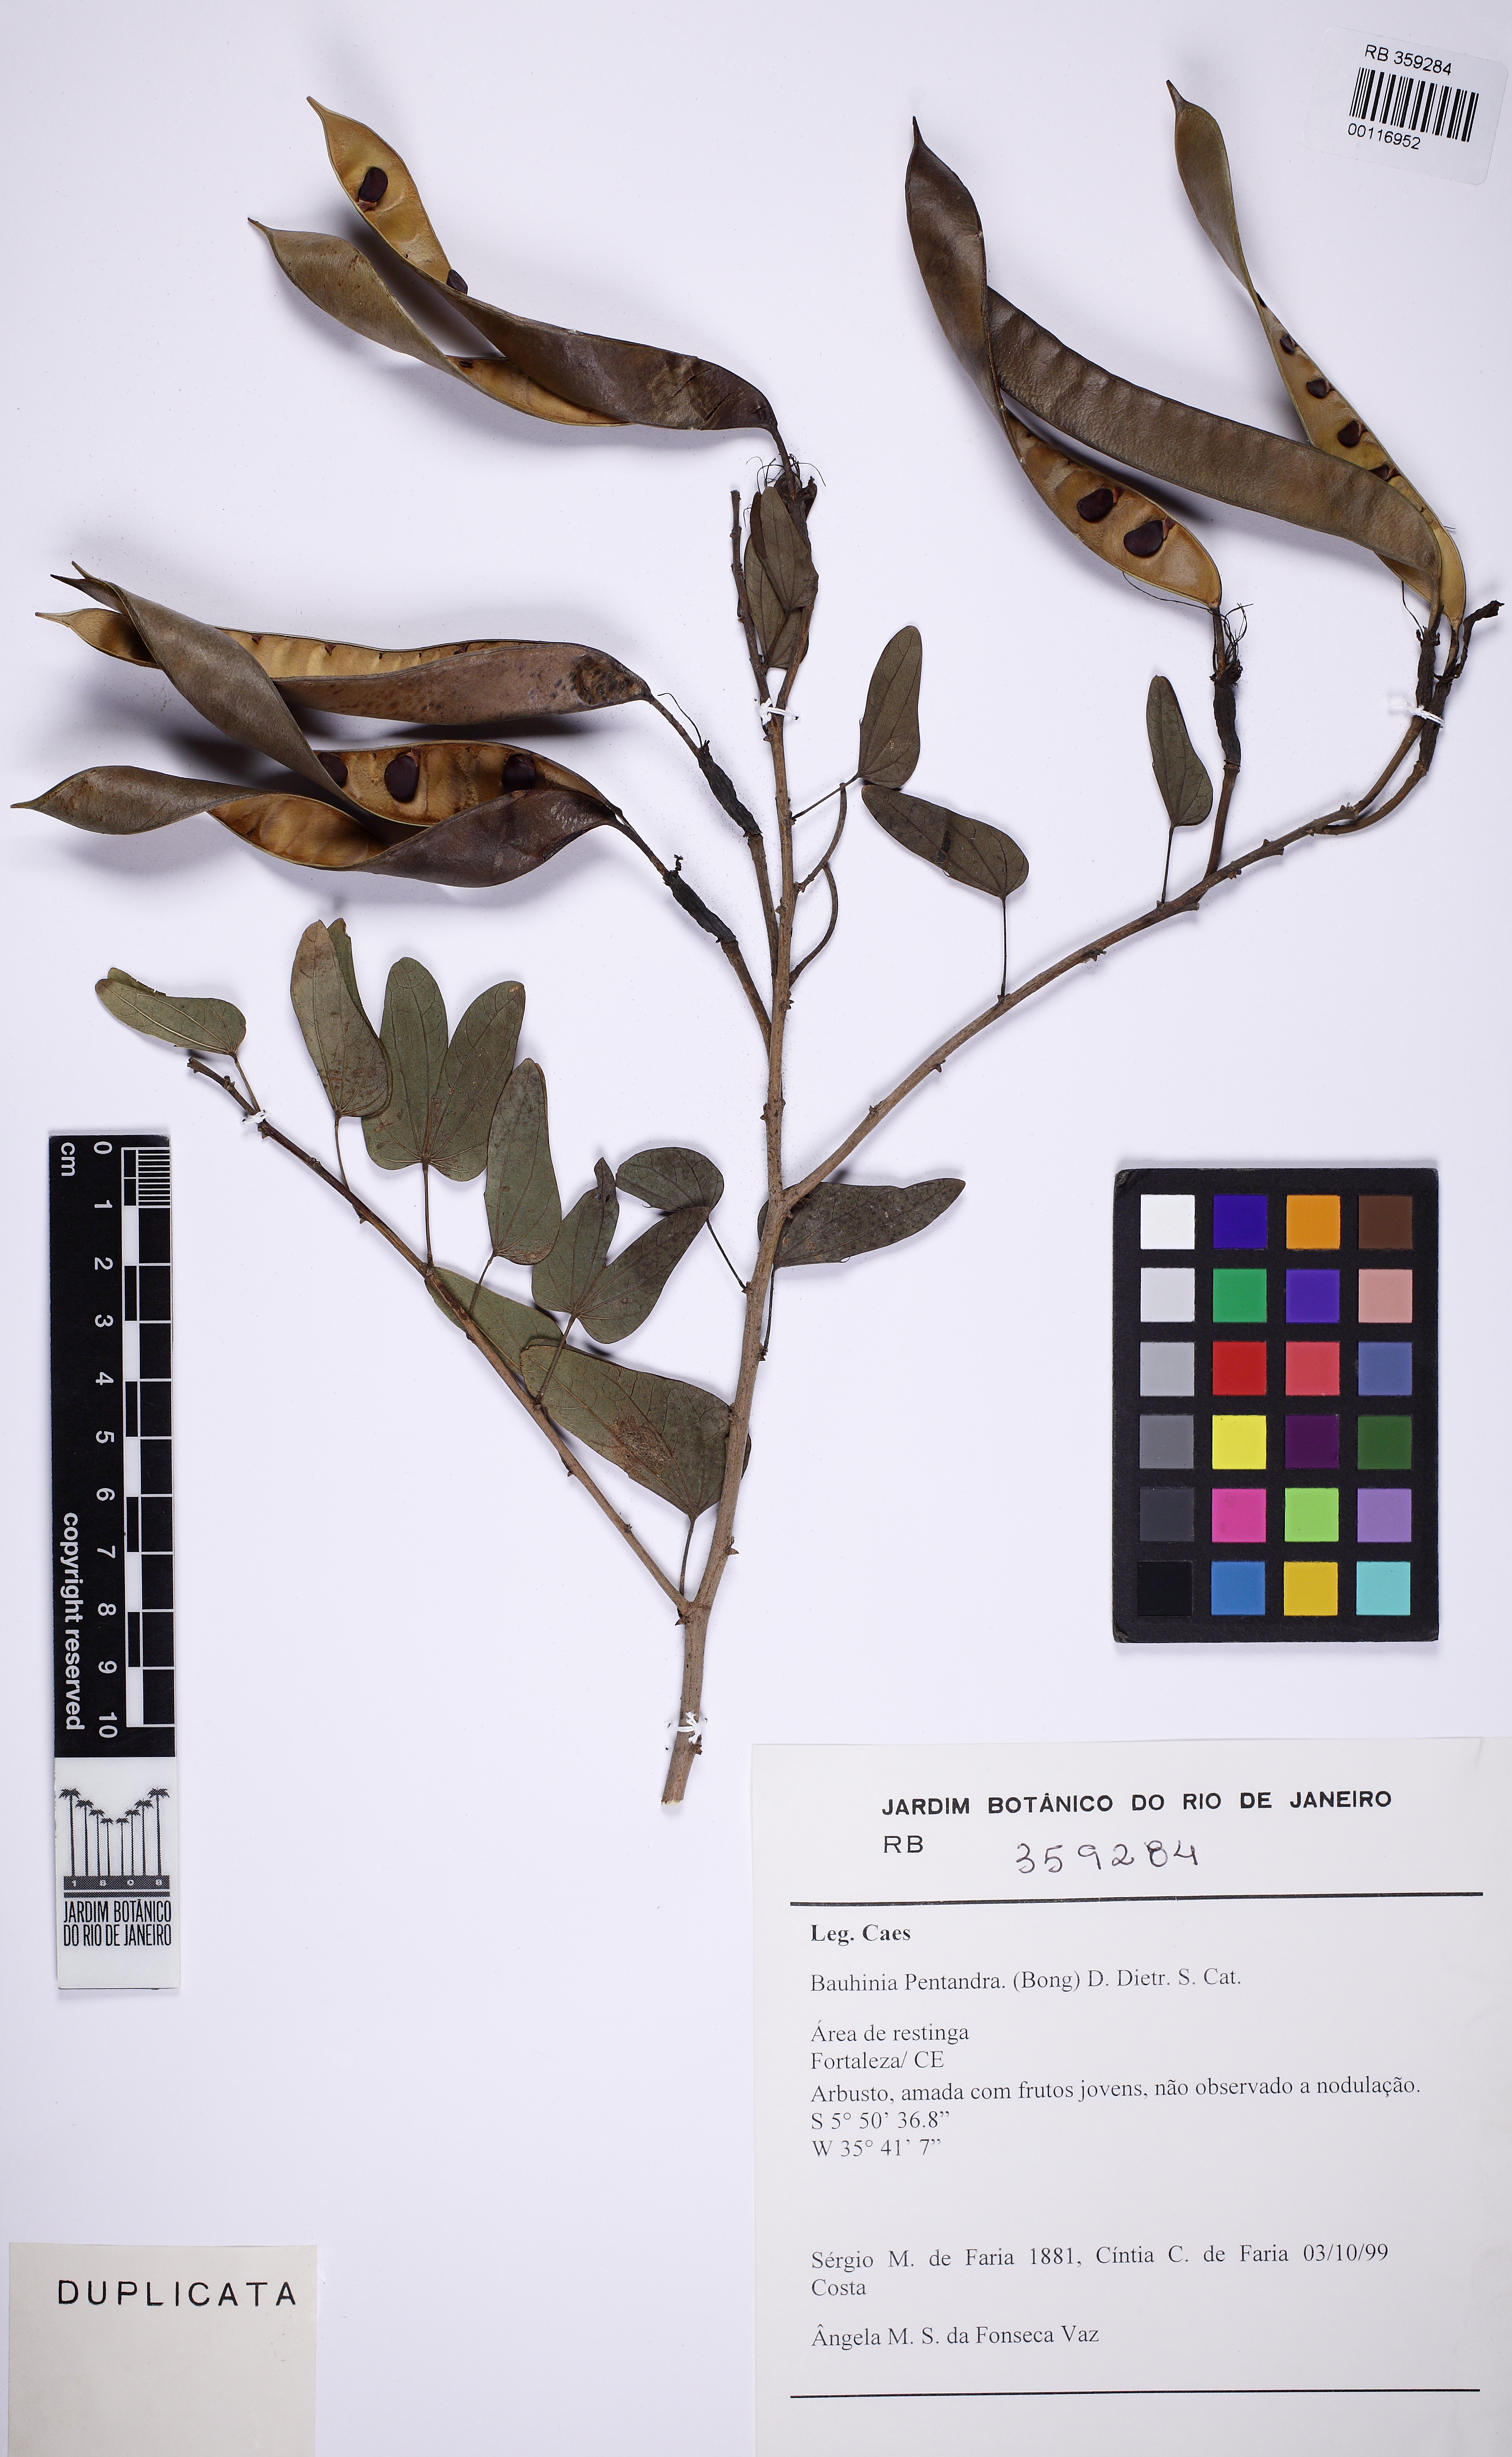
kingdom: Plantae
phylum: Tracheophyta
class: Magnoliopsida
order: Fabales
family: Fabaceae
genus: Bauhinia
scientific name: Bauhinia pentandra
